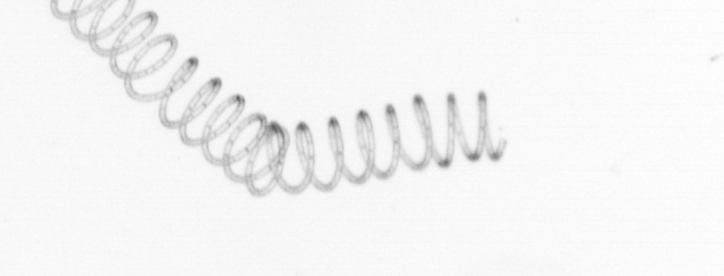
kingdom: Chromista
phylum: Ochrophyta
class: Bacillariophyceae
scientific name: Bacillariophyceae
